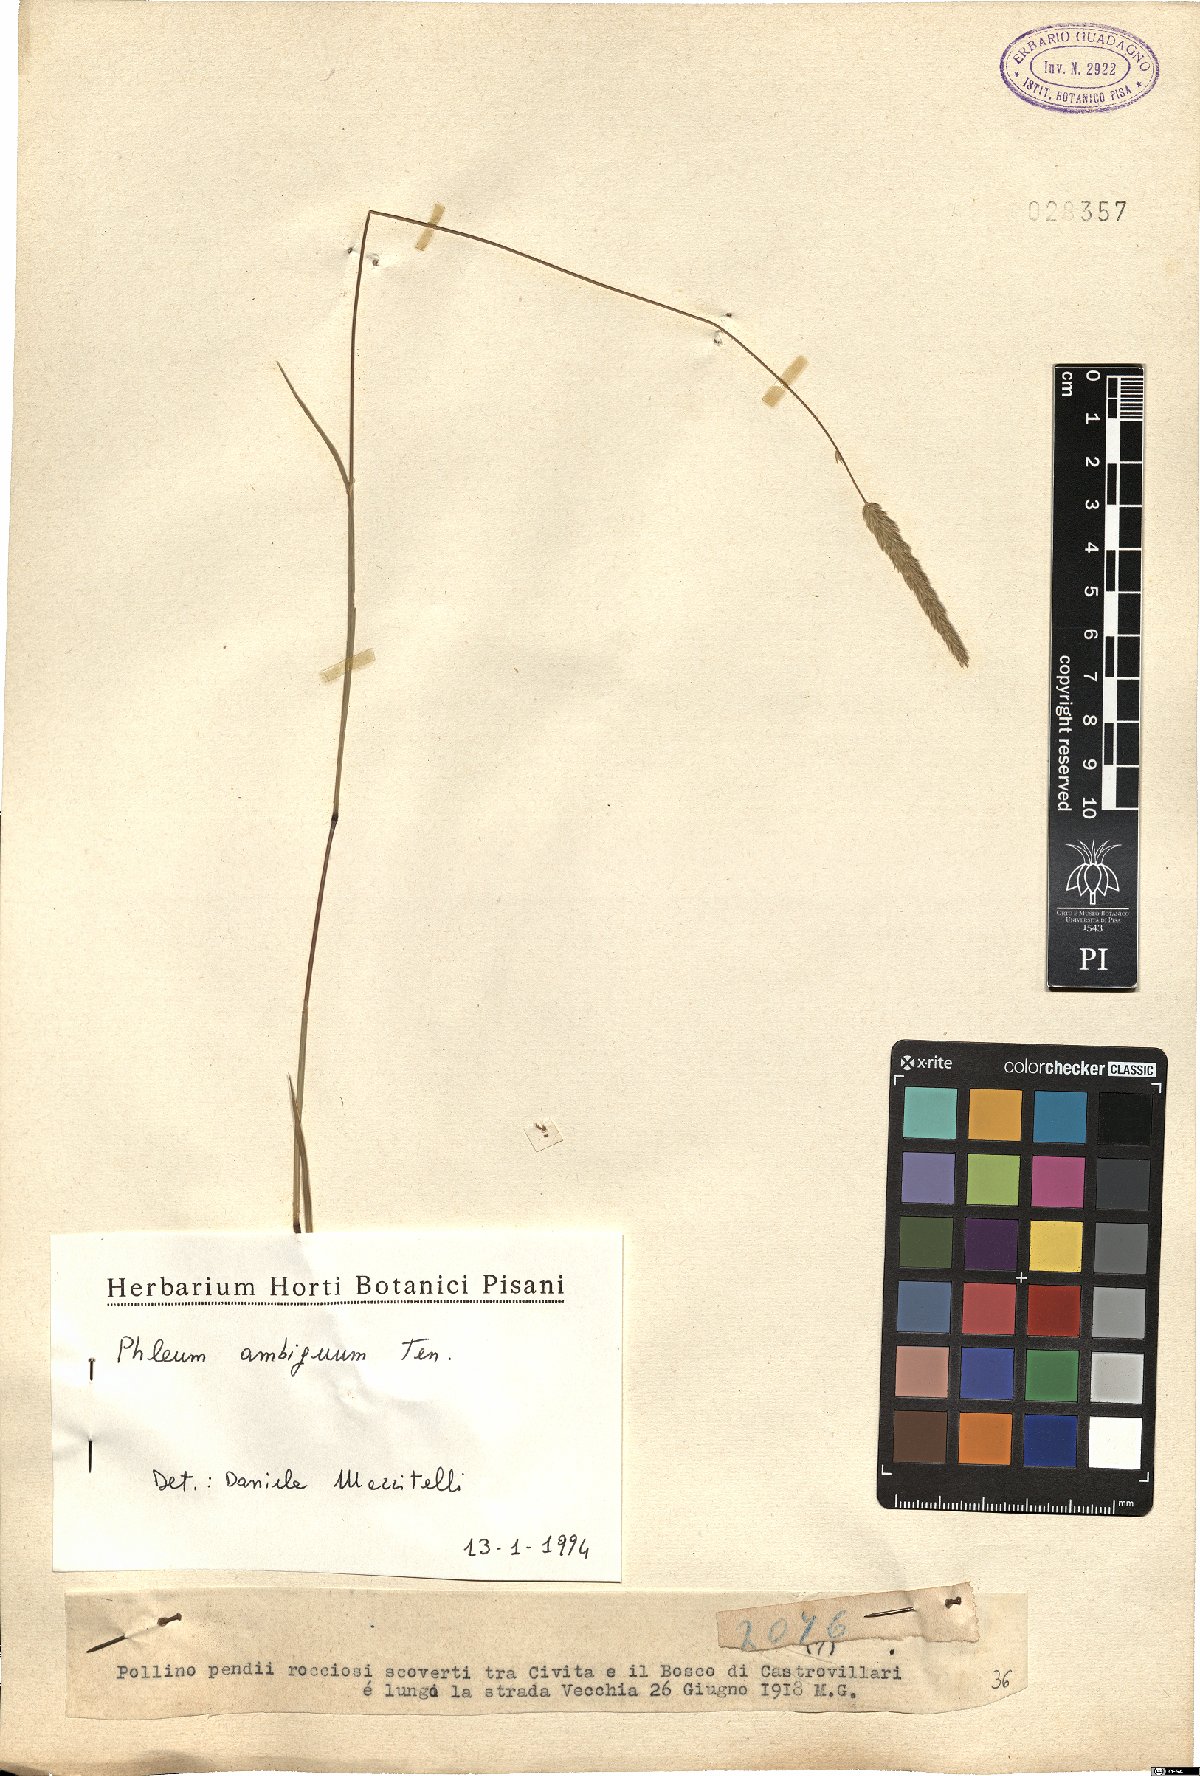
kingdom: Plantae
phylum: Tracheophyta
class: Liliopsida
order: Poales
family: Poaceae
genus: Phleum
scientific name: Phleum hirsutum
